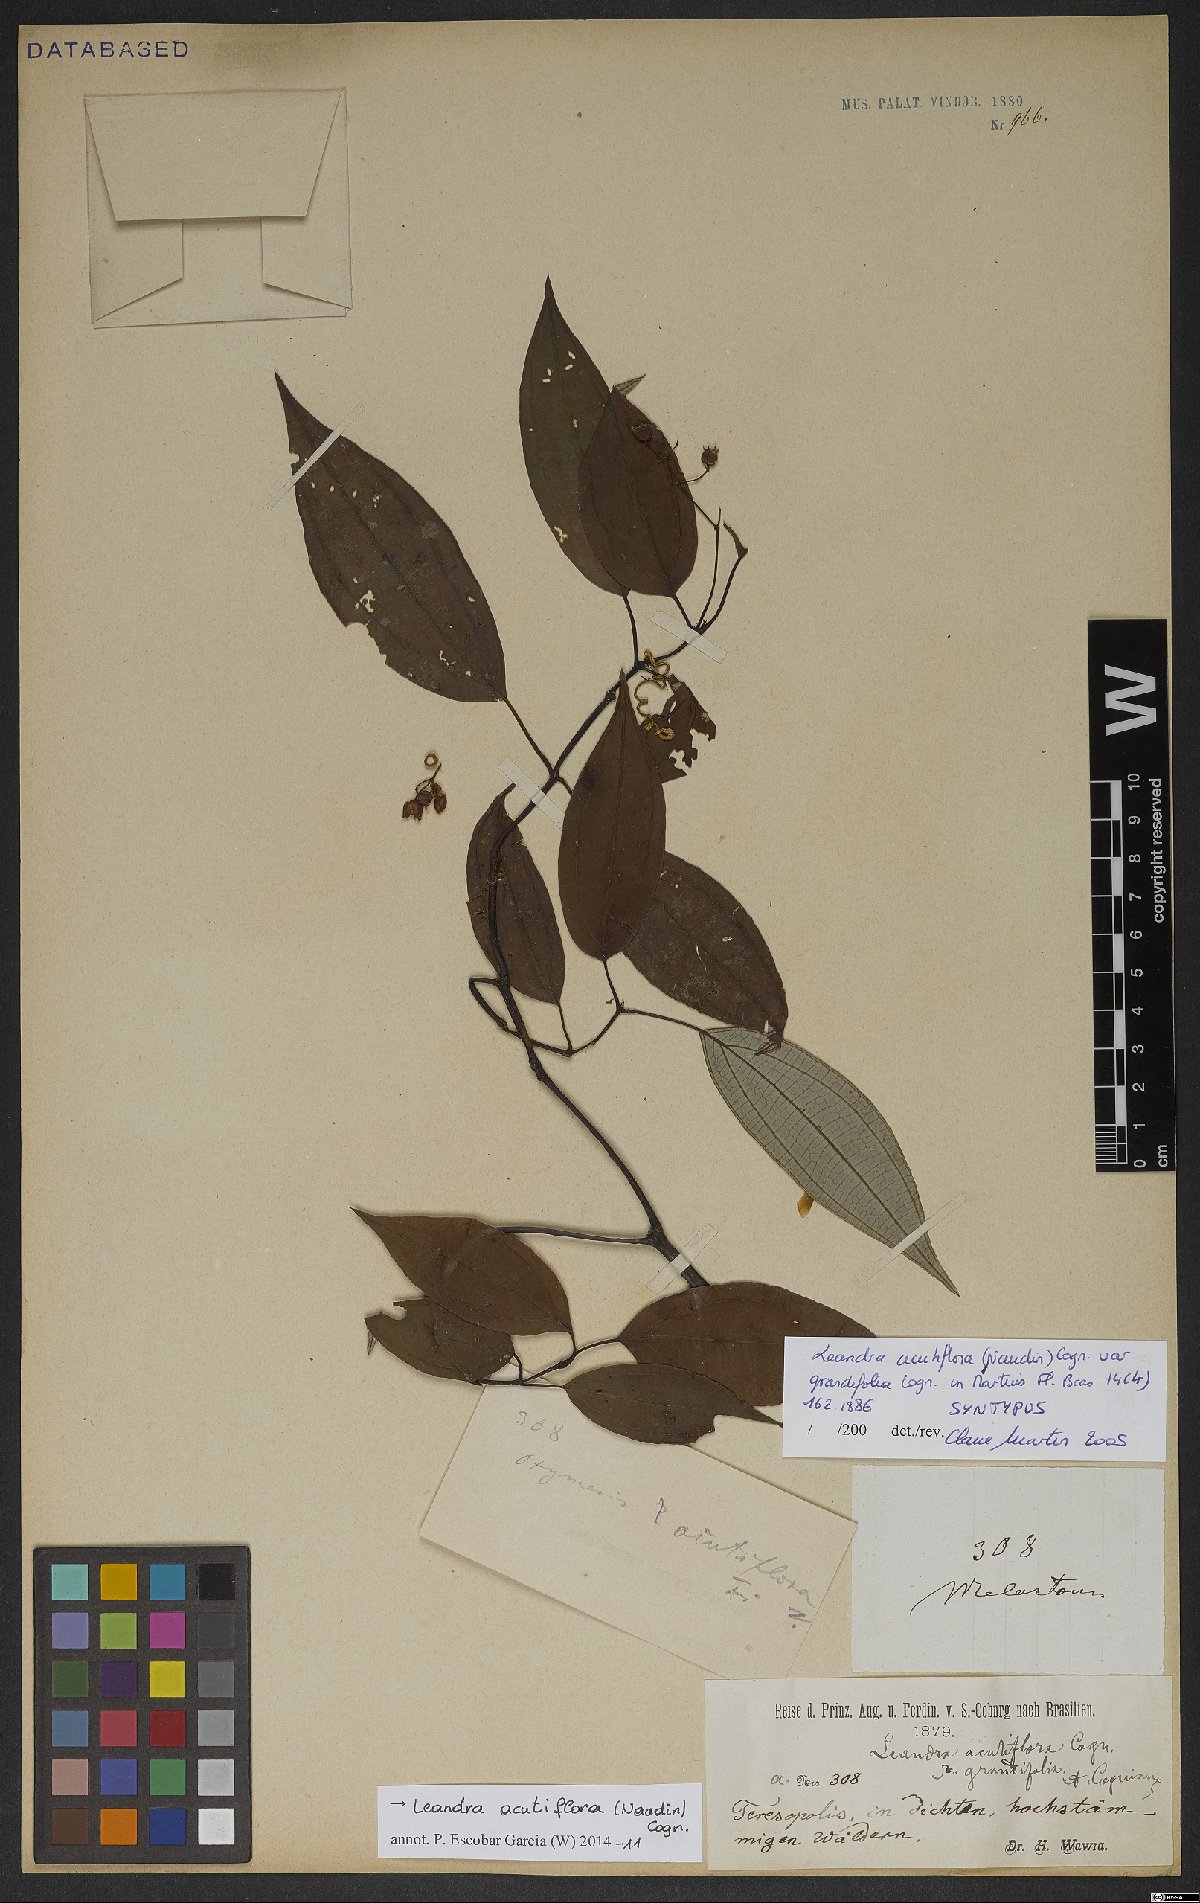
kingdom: Plantae
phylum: Tracheophyta
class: Magnoliopsida
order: Myrtales
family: Melastomataceae
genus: Miconia
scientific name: Miconia acutiflora
